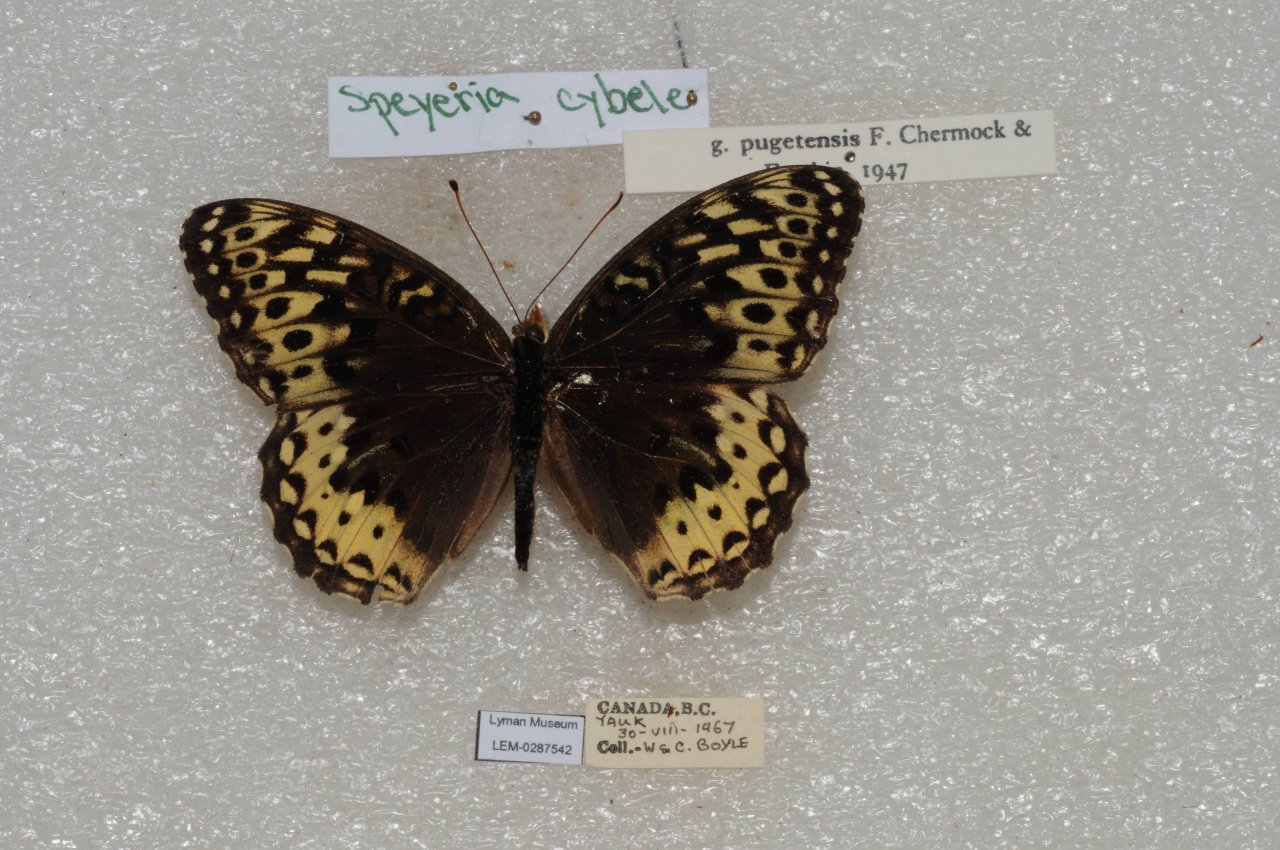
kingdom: Animalia
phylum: Arthropoda
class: Insecta
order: Lepidoptera
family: Nymphalidae
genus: Speyeria
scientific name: Speyeria cybele
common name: Great Spangled Fritillary
